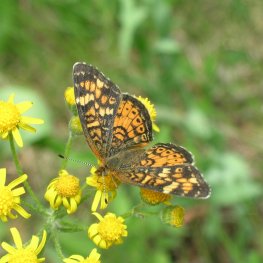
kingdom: Animalia
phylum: Arthropoda
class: Insecta
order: Lepidoptera
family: Nymphalidae
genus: Phyciodes
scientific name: Phyciodes batesii
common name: Tawny Crescent
